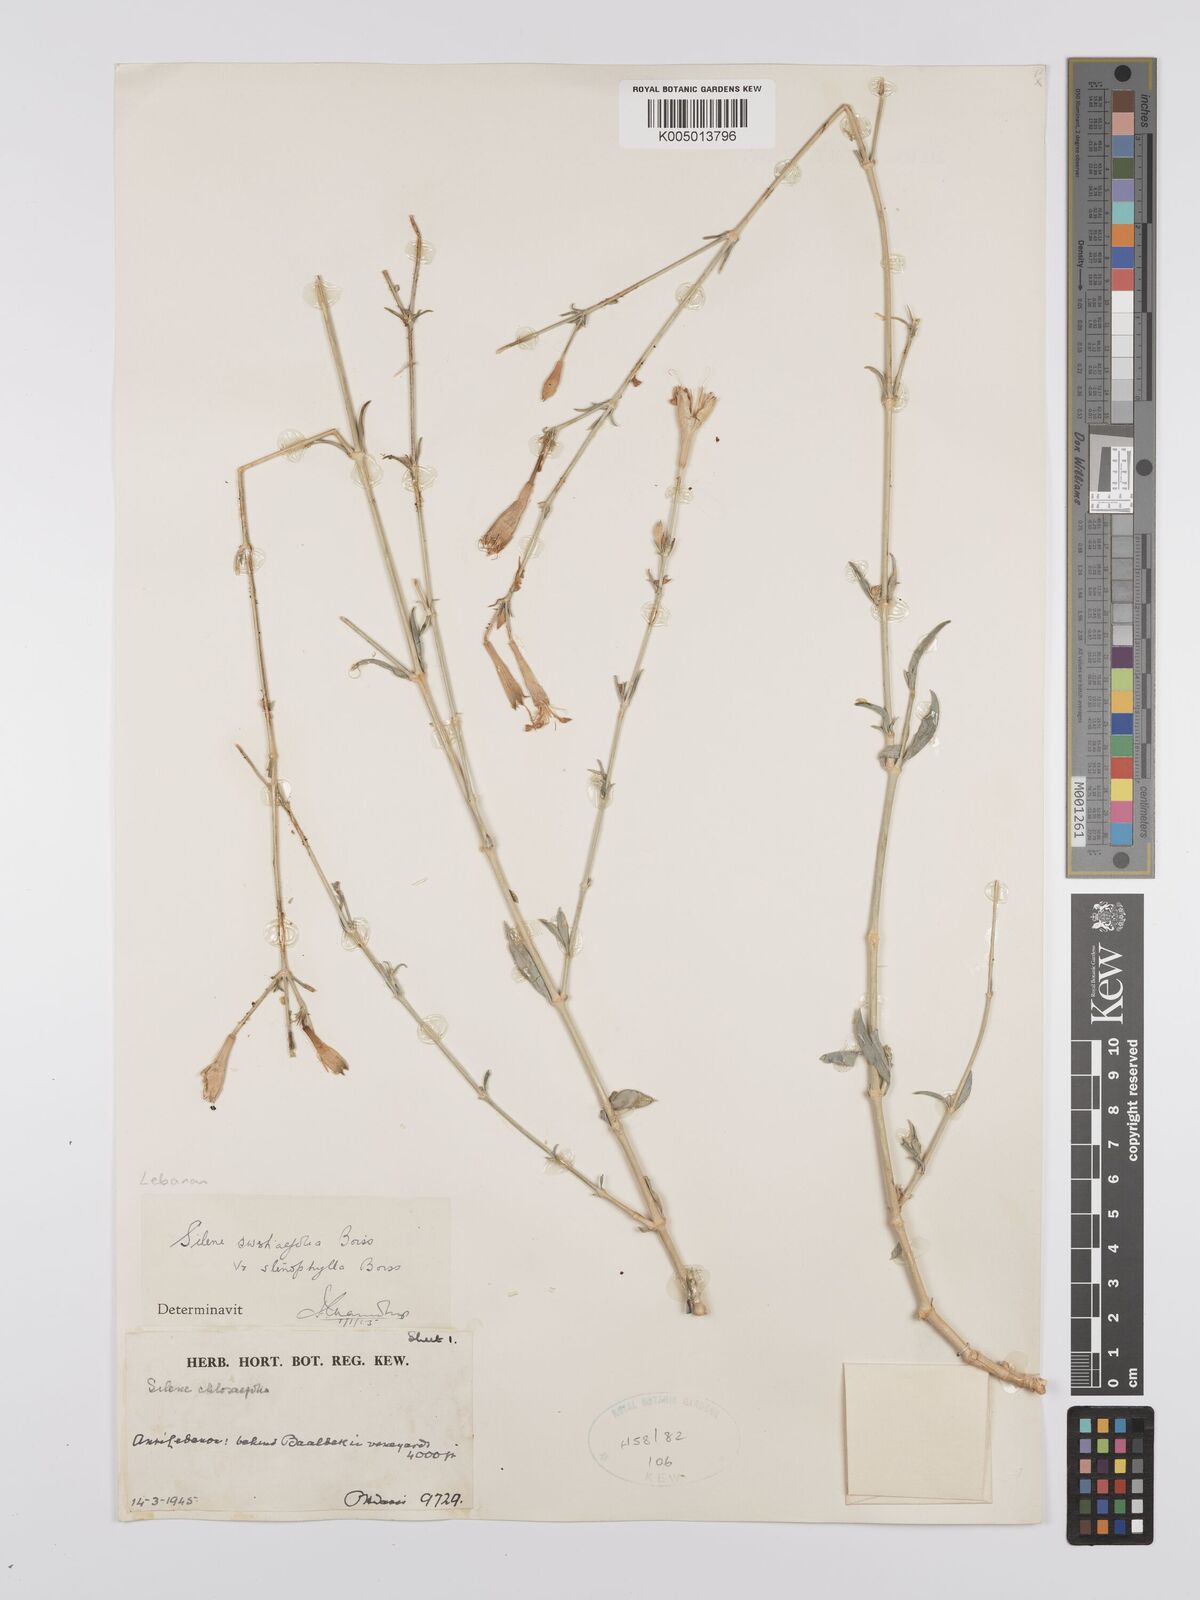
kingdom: Plantae
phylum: Tracheophyta
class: Magnoliopsida
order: Caryophyllales
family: Caryophyllaceae
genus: Silene
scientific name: Silene swertiifolia
